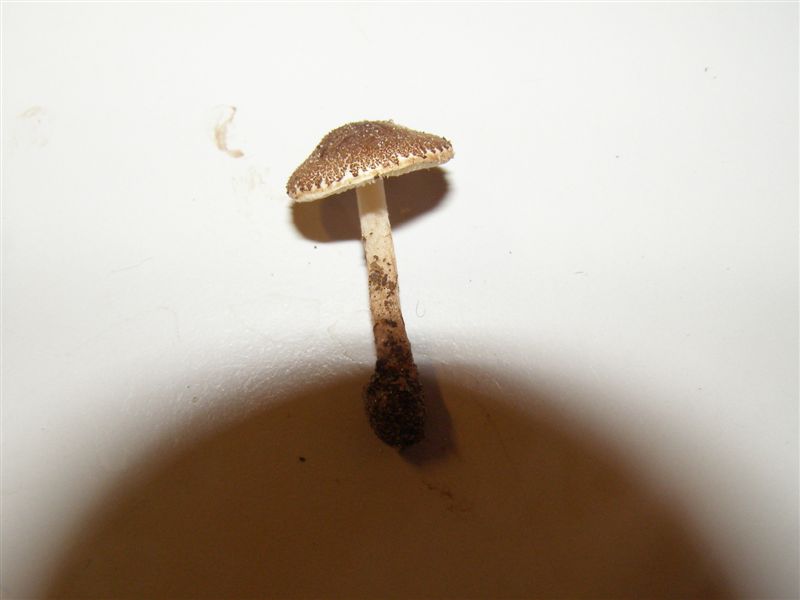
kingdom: Fungi
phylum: Basidiomycota
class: Agaricomycetes
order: Agaricales
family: Agaricaceae
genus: Lepiota
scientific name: Lepiota pseudolilacea
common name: gråbrun parasolhat
